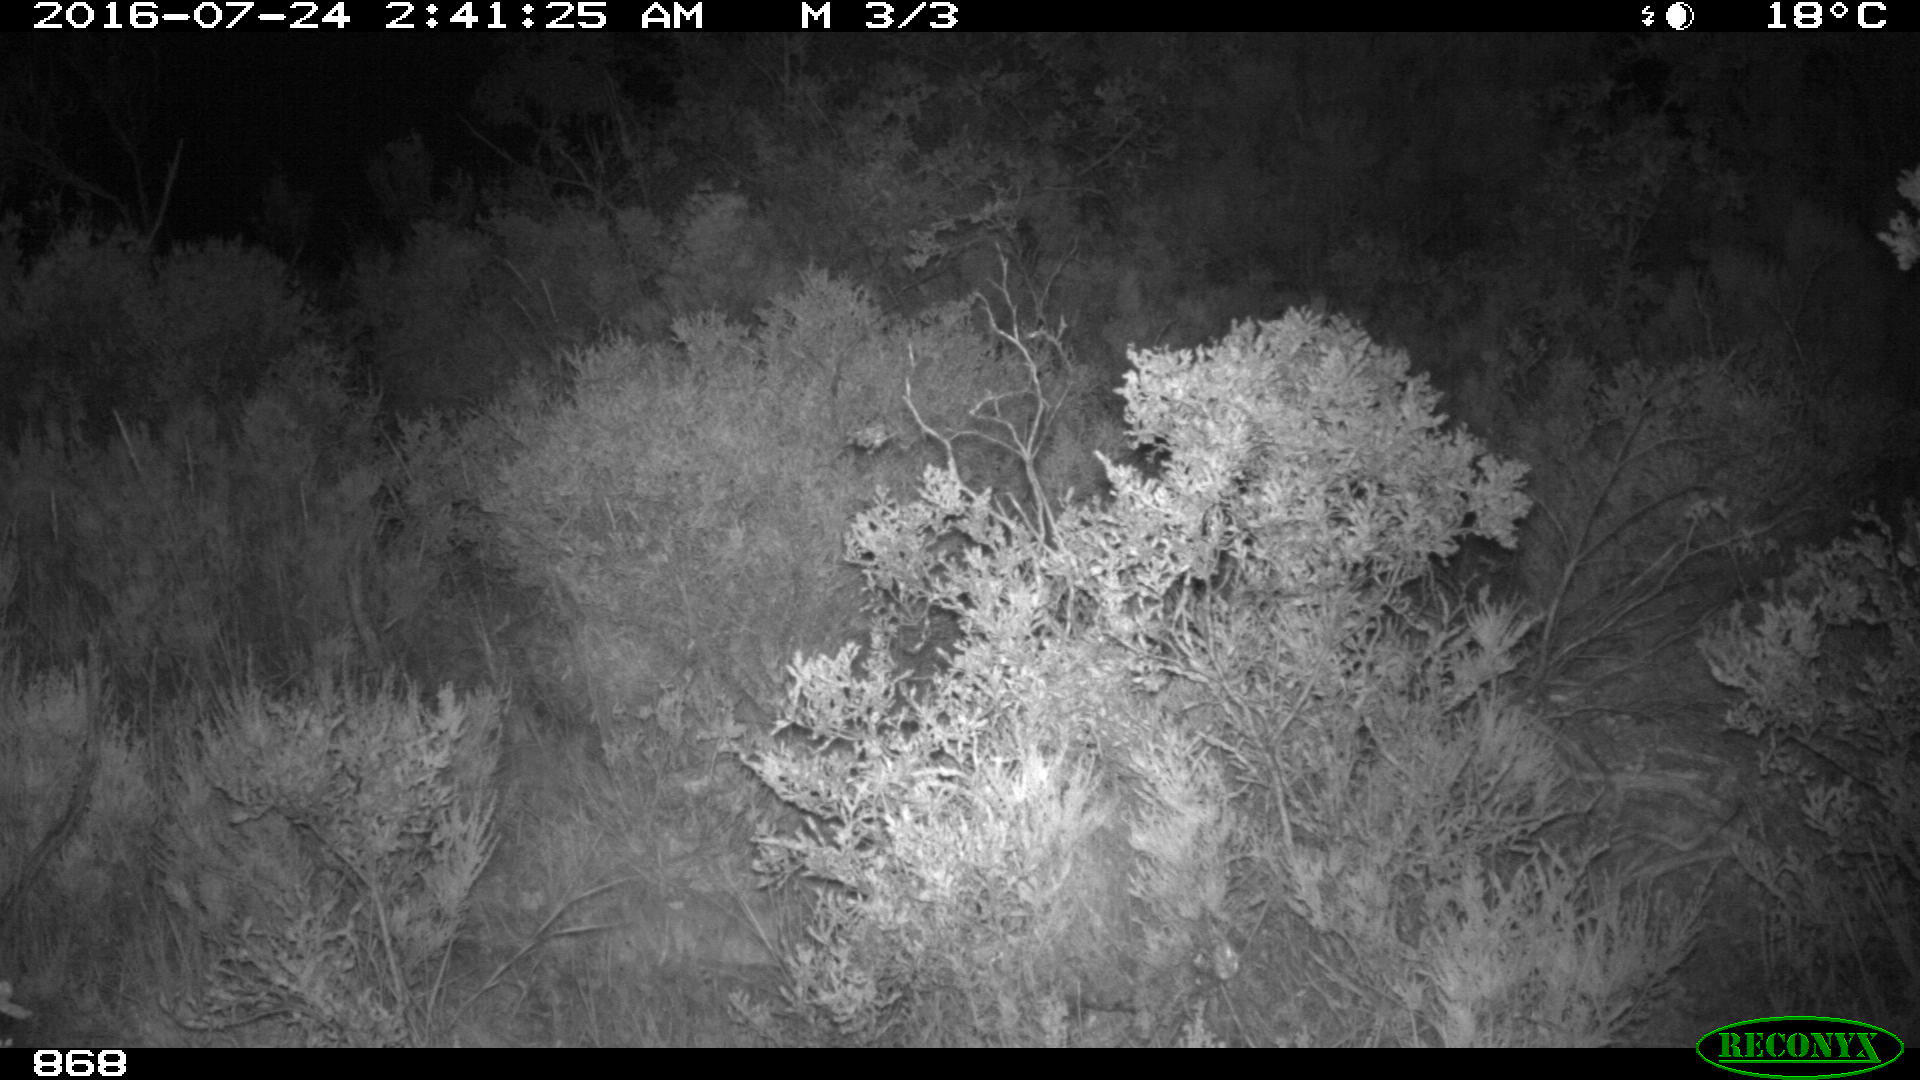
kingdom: Animalia
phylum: Chordata
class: Mammalia
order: Artiodactyla
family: Cervidae
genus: Capreolus
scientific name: Capreolus capreolus
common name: Western roe deer
